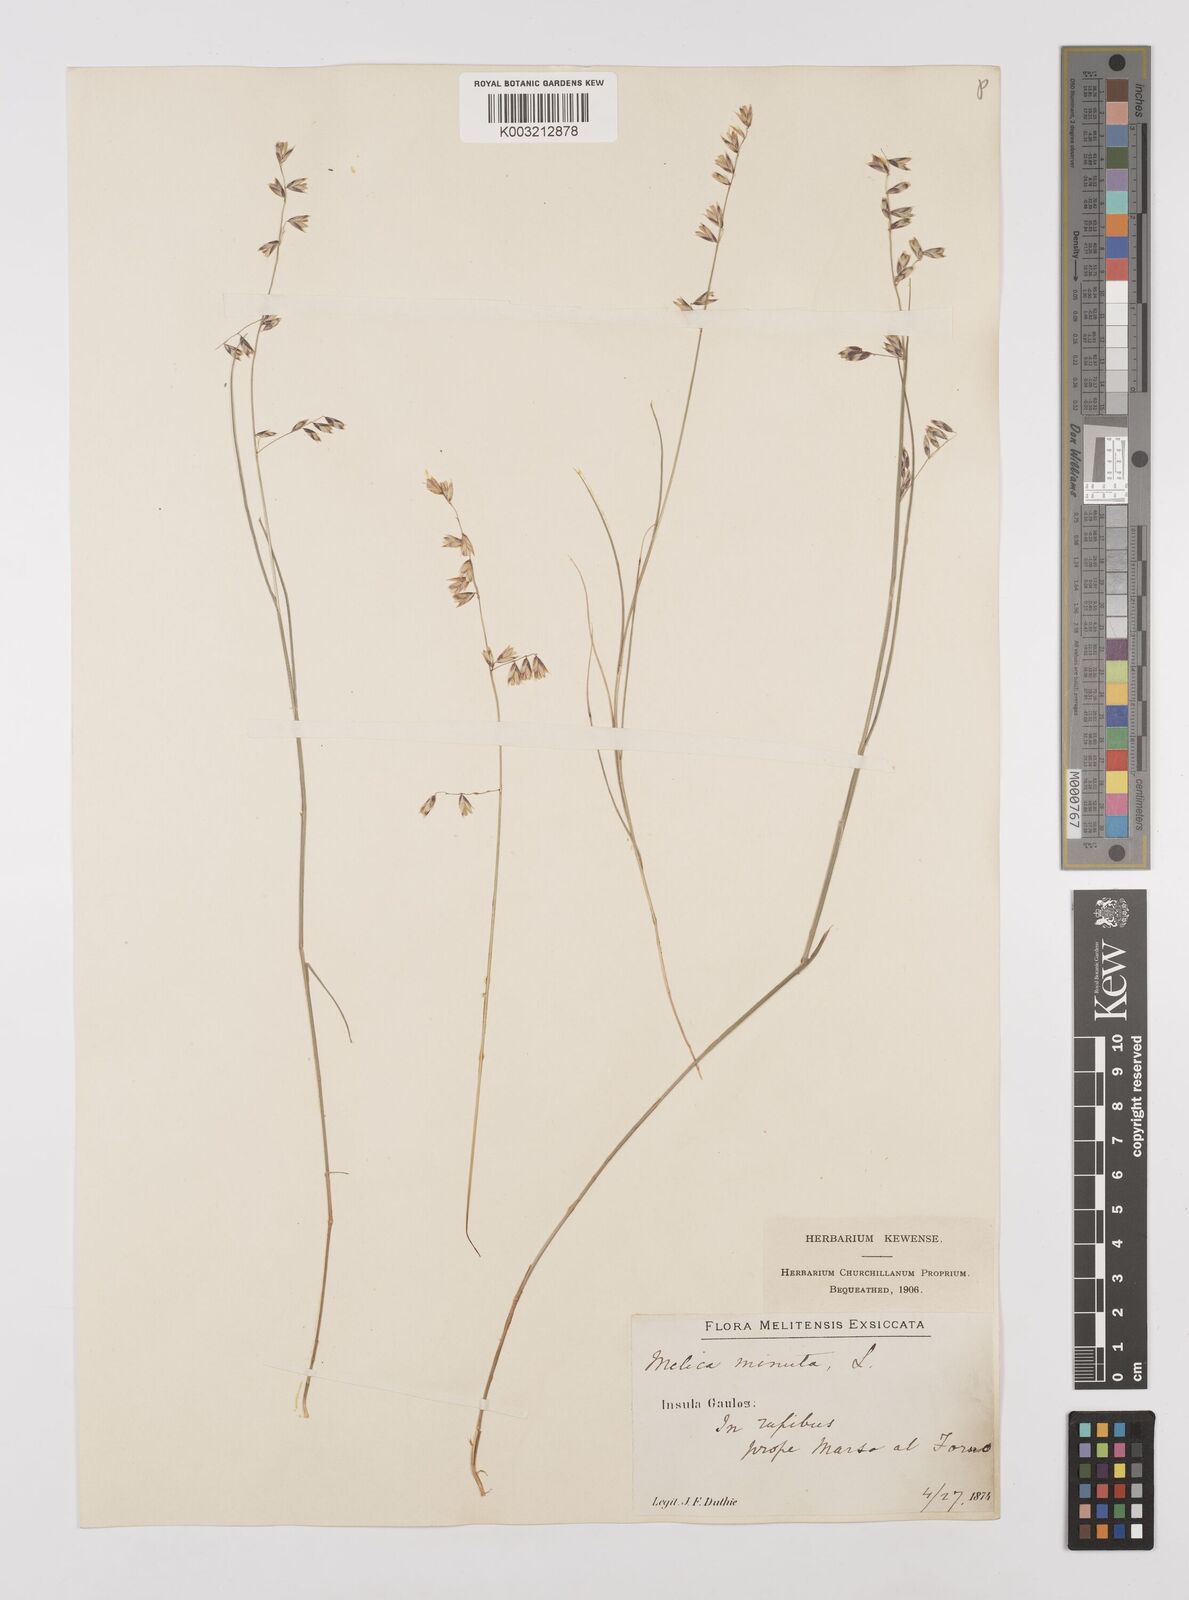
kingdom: Plantae
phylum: Tracheophyta
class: Liliopsida
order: Poales
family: Poaceae
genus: Melica
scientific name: Melica minuta
